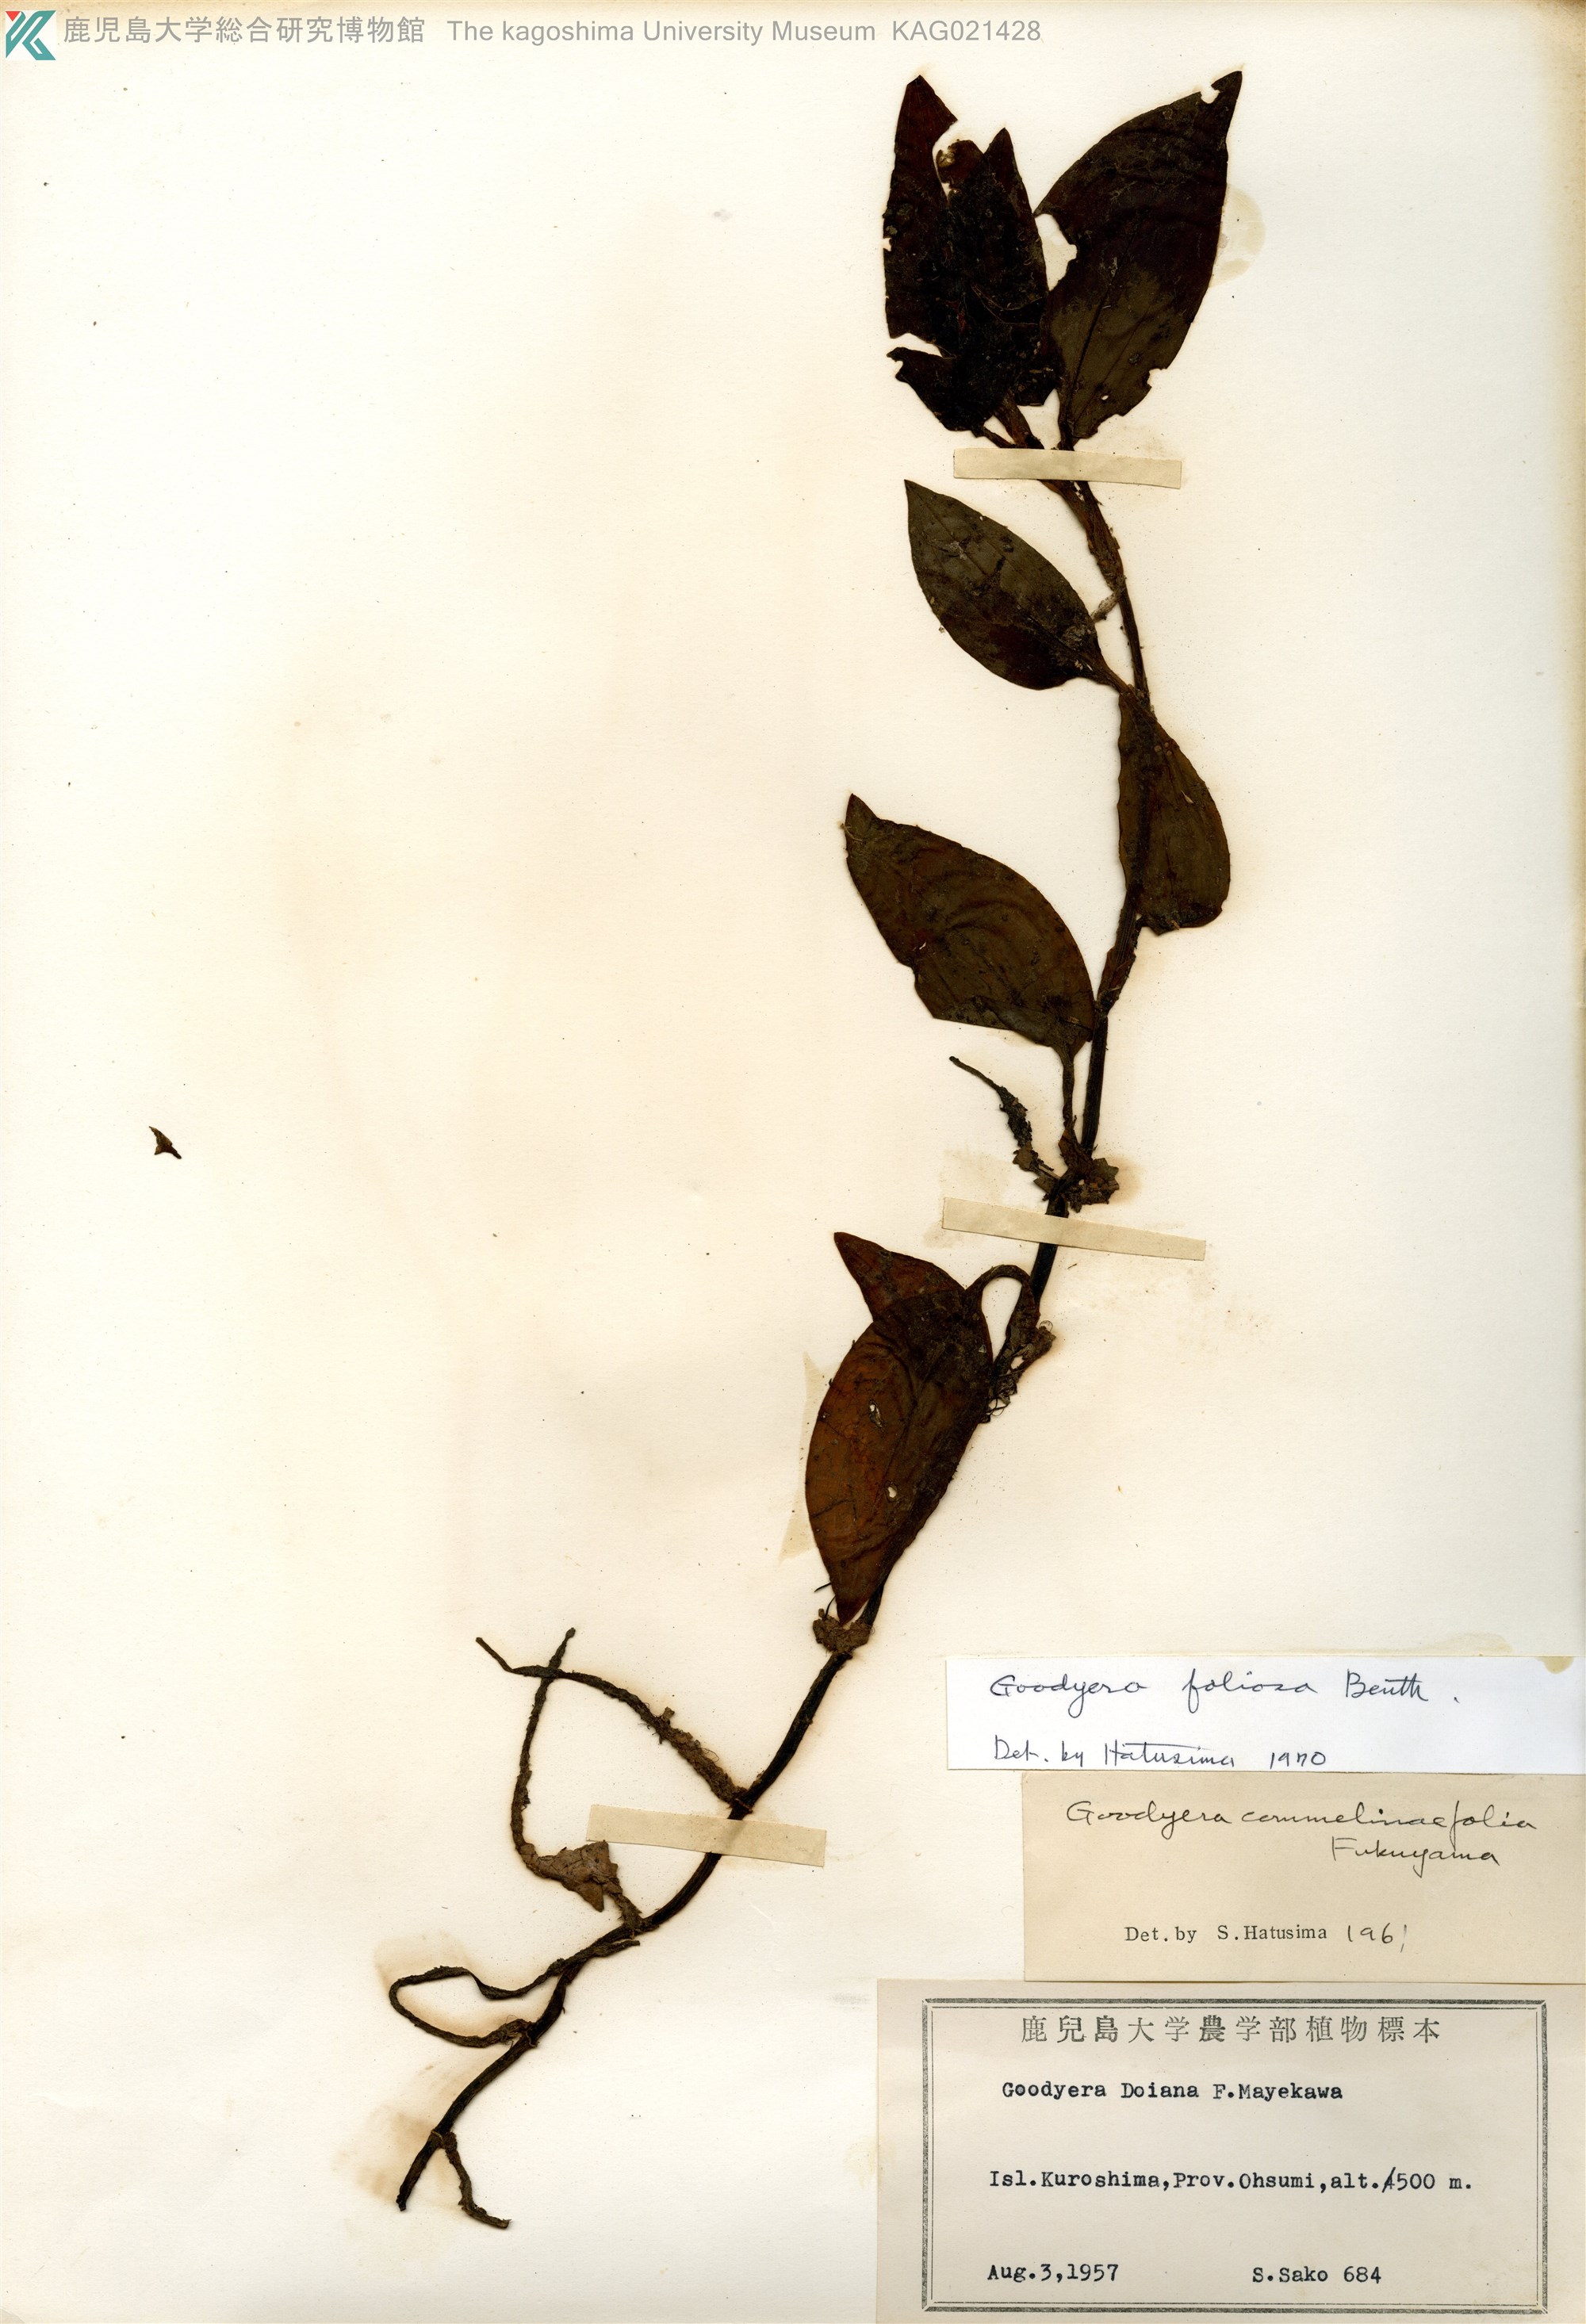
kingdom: Plantae
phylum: Tracheophyta
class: Liliopsida
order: Asparagales
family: Orchidaceae
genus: Goodyera
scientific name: Goodyera foliosa
